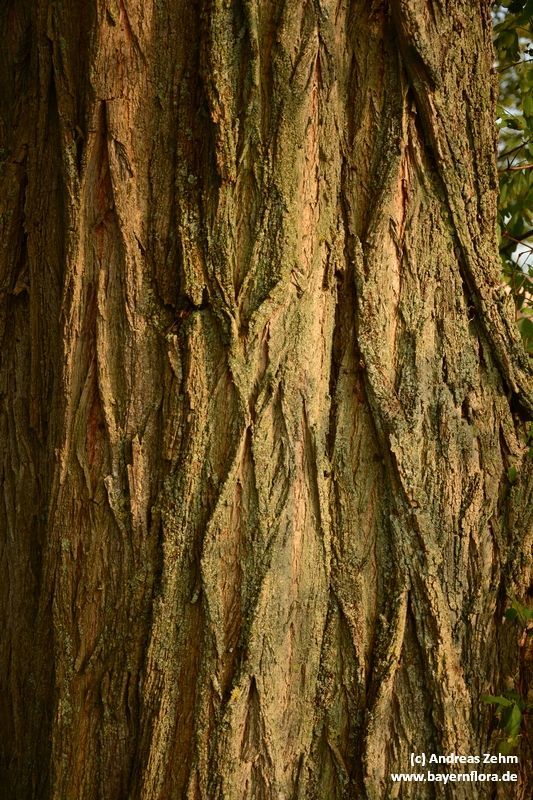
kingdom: Plantae
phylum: Tracheophyta
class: Magnoliopsida
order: Fabales
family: Fabaceae
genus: Robinia
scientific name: Robinia pseudoacacia
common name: Black locust
